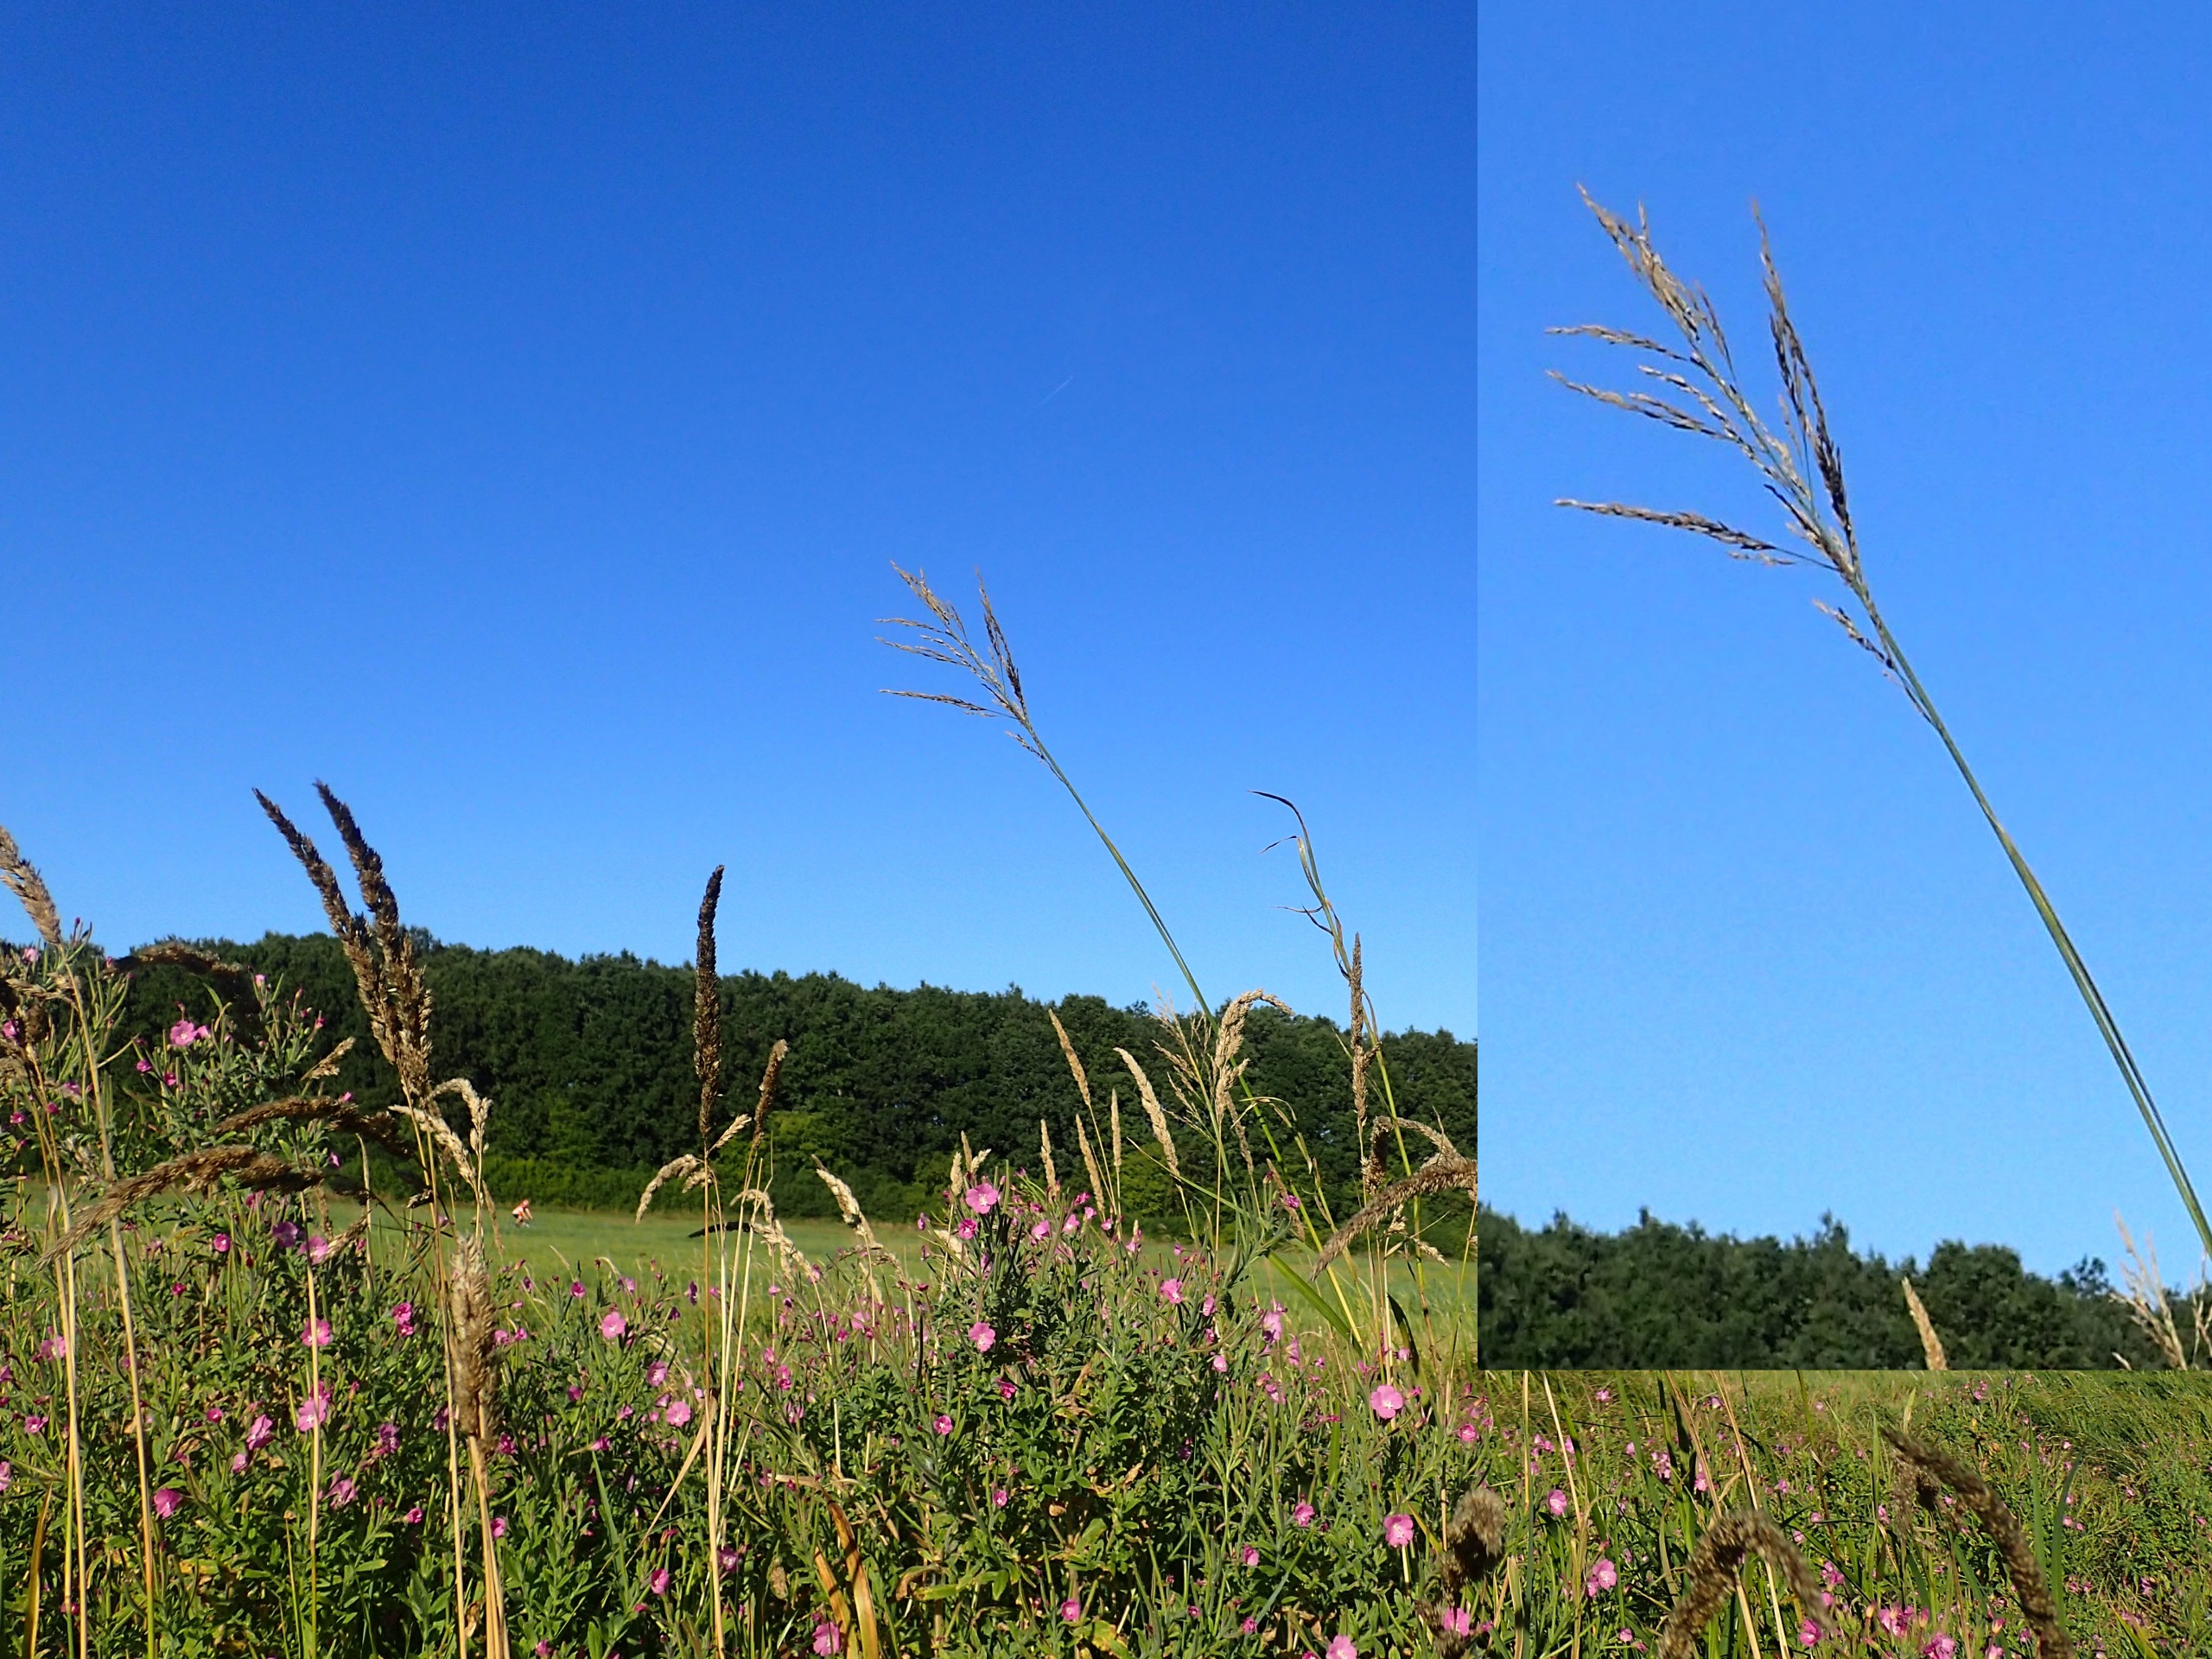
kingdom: Plantae
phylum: Tracheophyta
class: Liliopsida
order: Poales
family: Poaceae
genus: Glyceria
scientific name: Glyceria maxima
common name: Høj sødgræs
